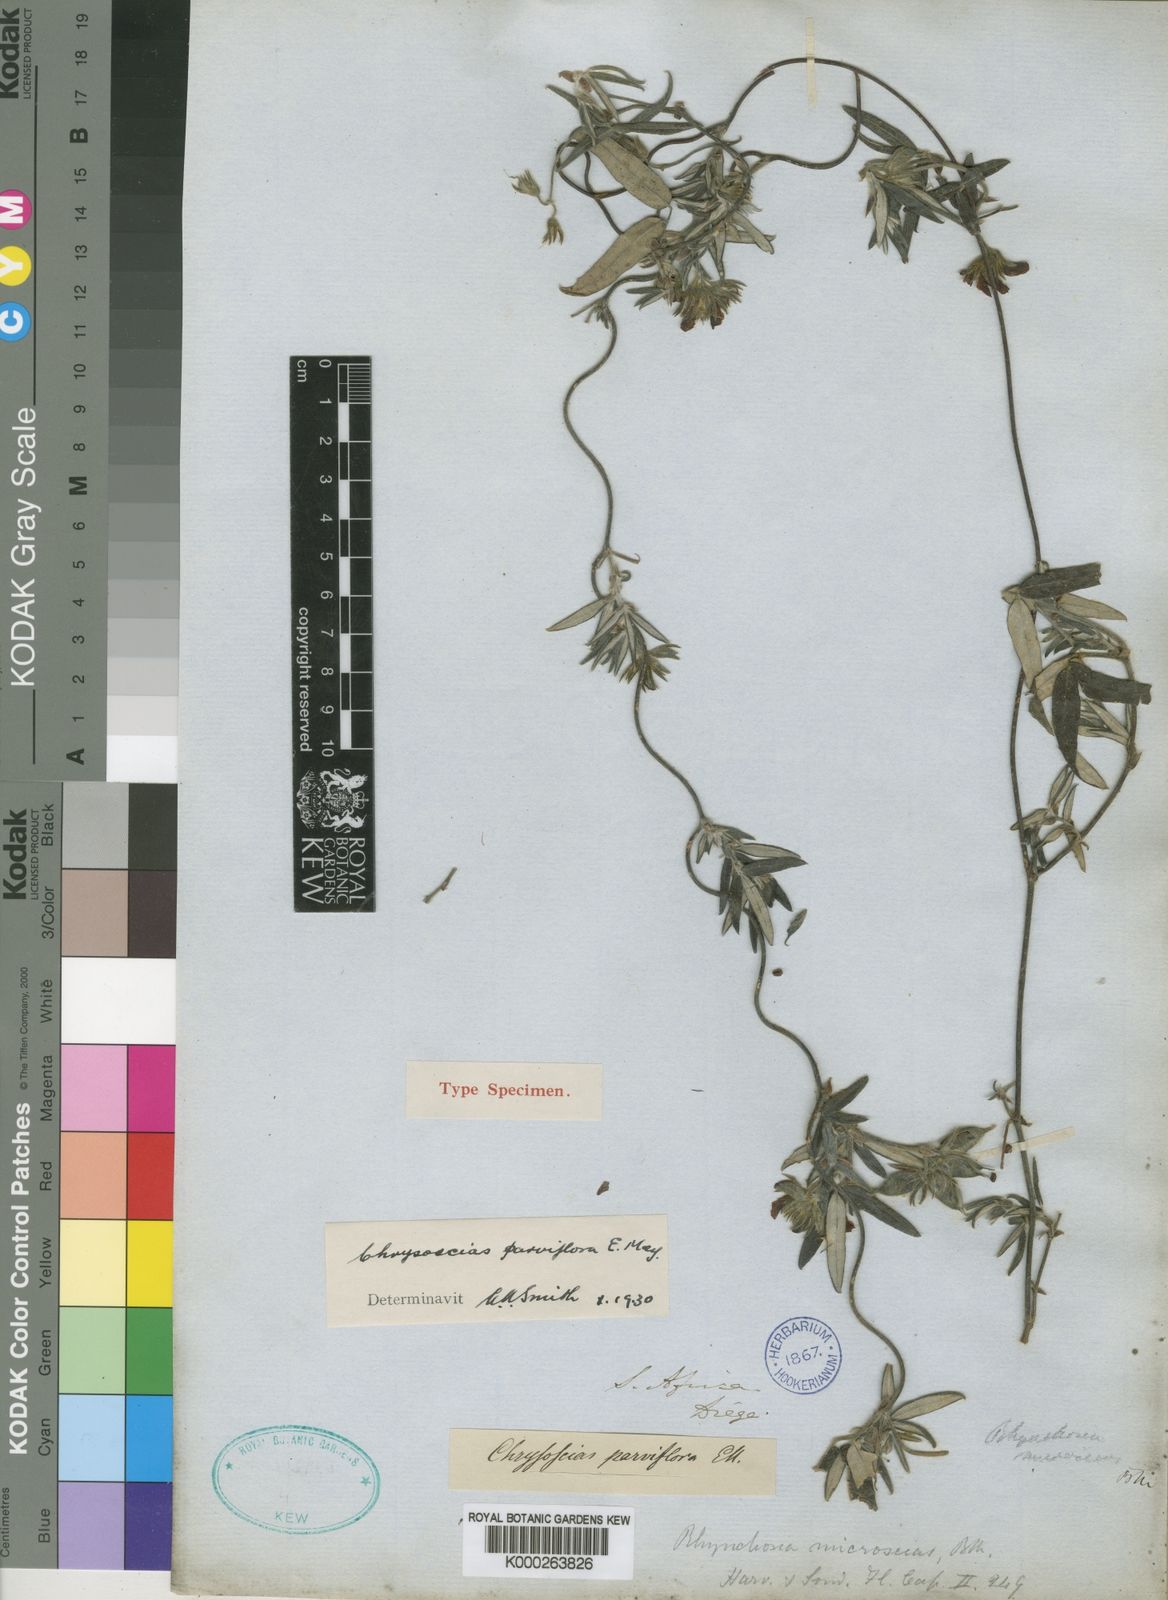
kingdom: Plantae
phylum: Tracheophyta
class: Magnoliopsida
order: Fabales
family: Fabaceae
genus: Rhynchosia
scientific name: Rhynchosia
